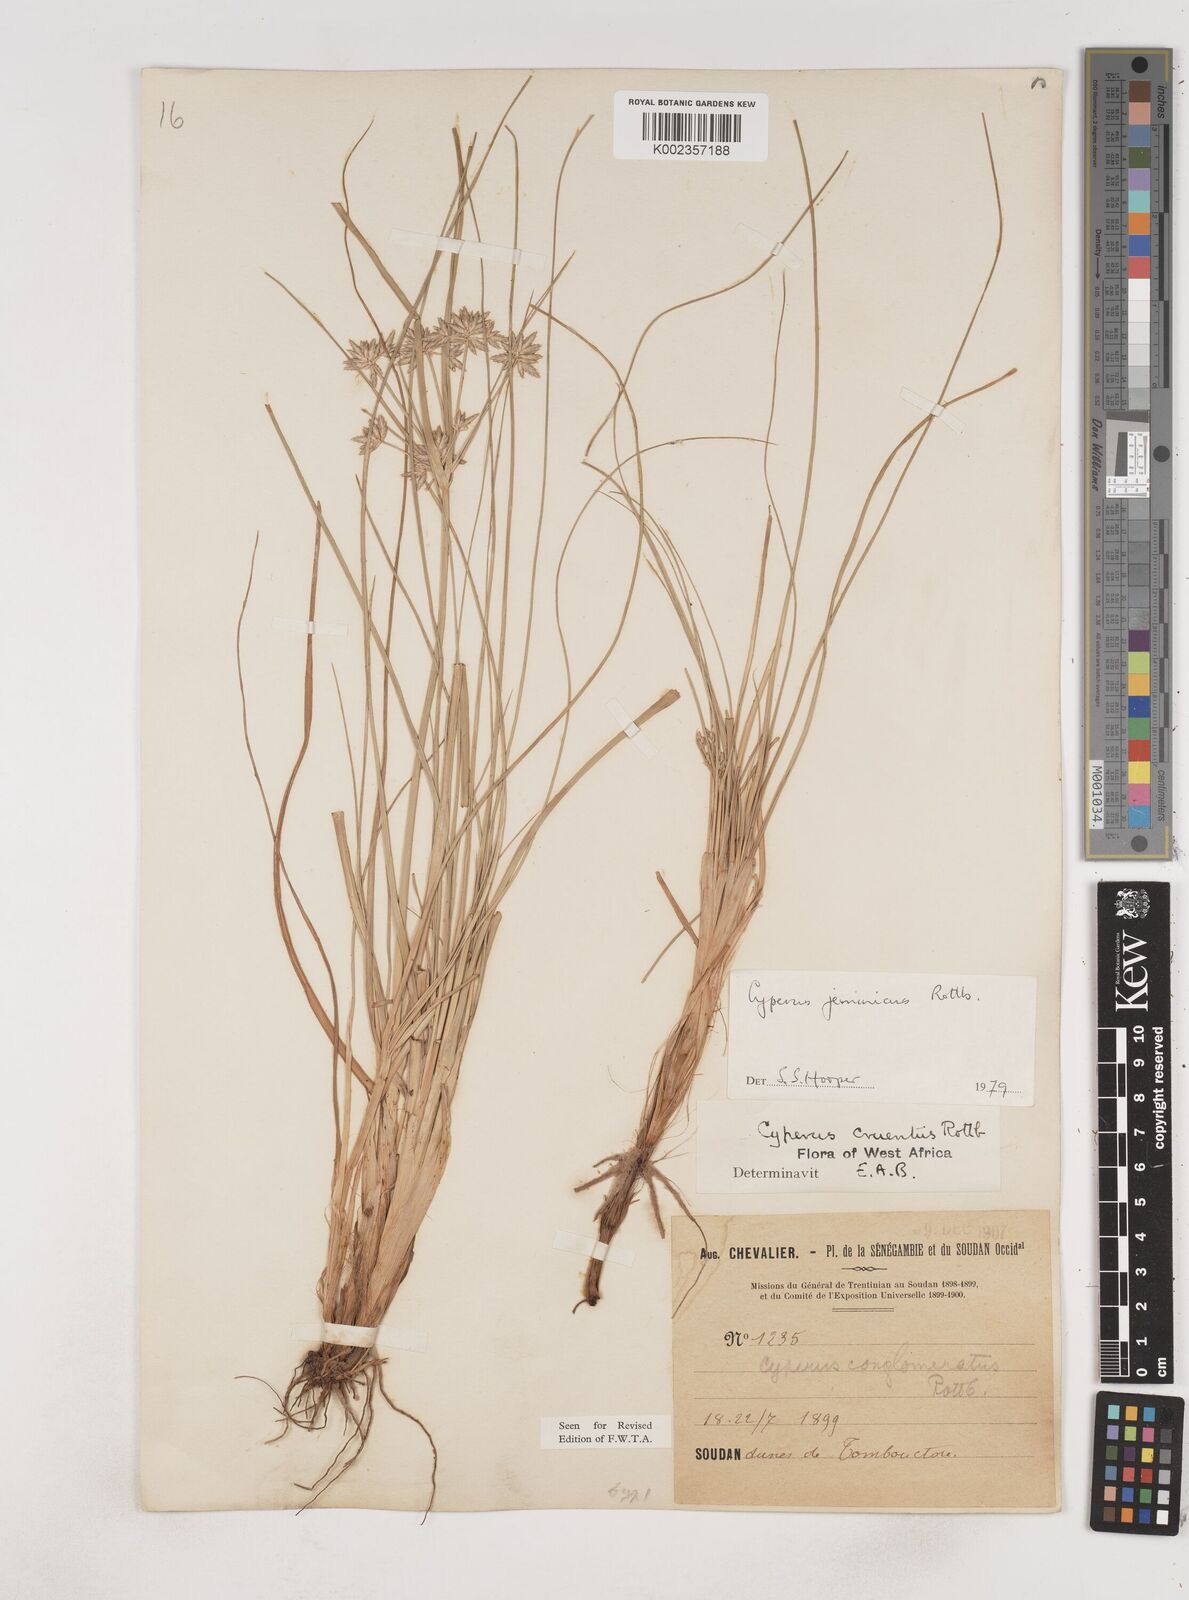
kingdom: Plantae
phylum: Tracheophyta
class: Liliopsida
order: Poales
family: Cyperaceae
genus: Cyperus
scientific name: Cyperus jeminicus
